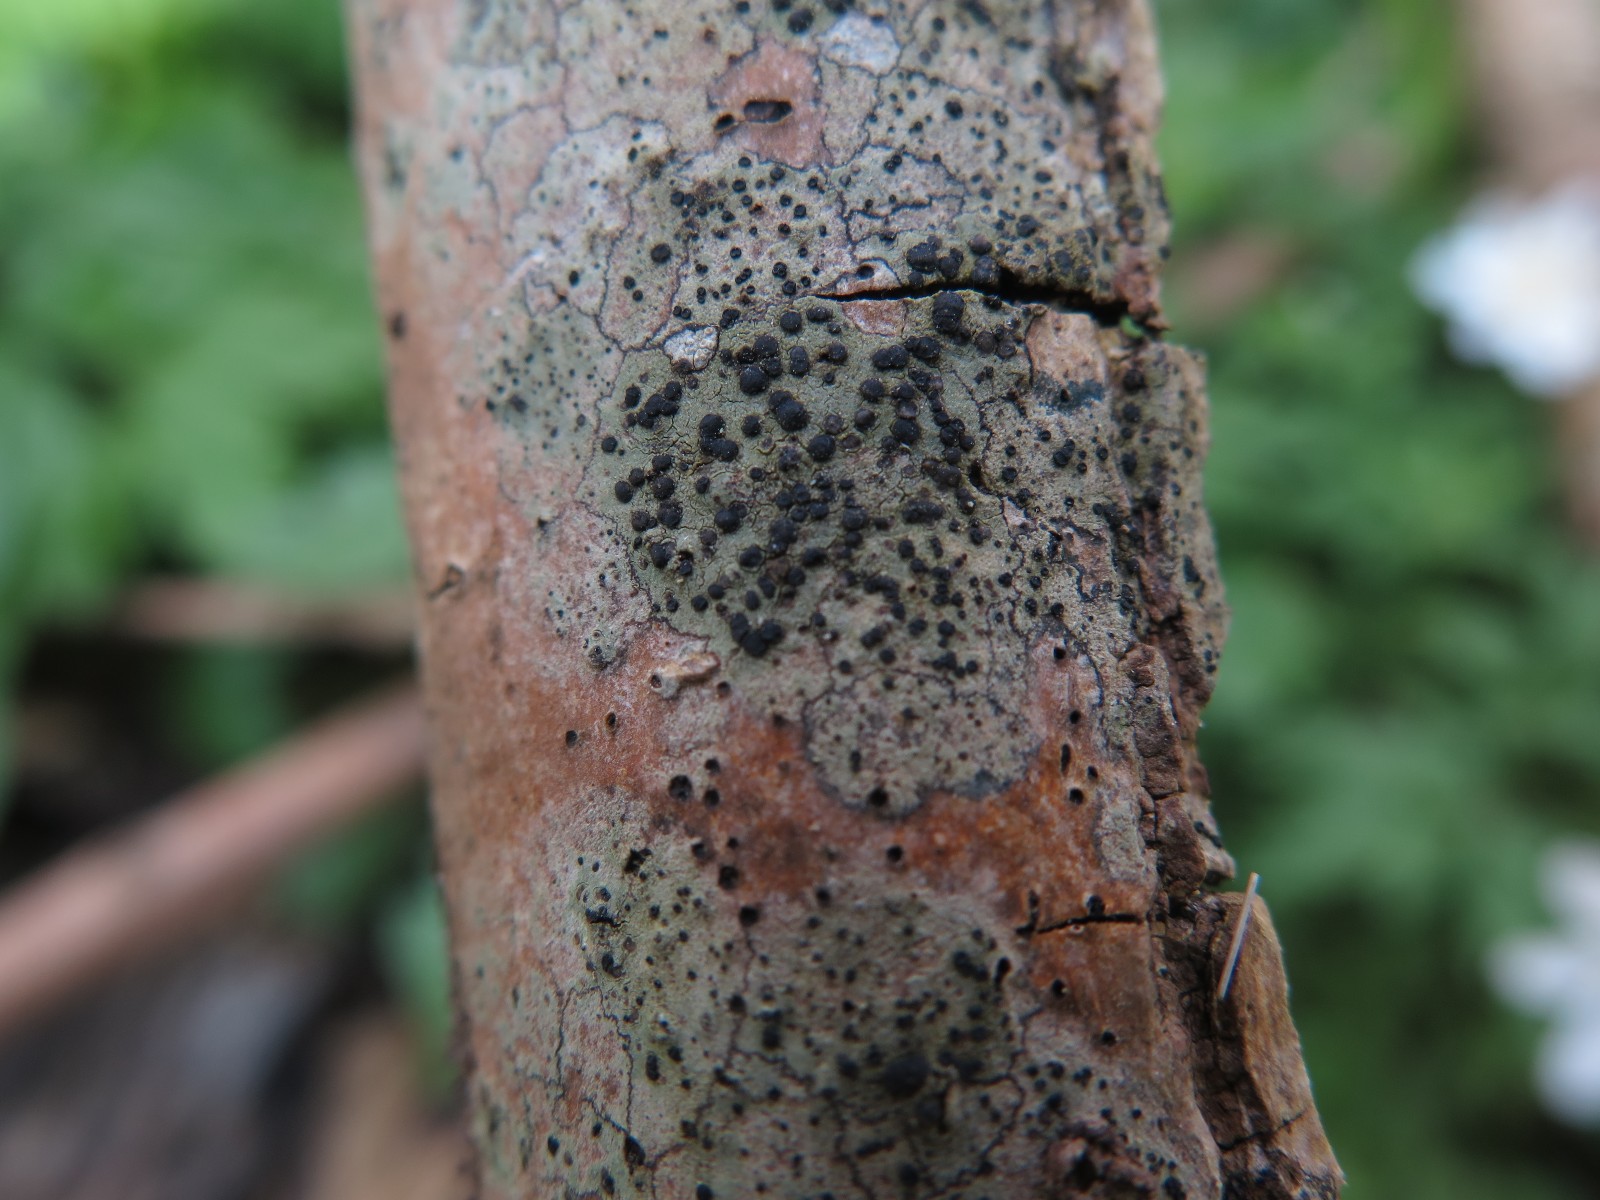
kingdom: Fungi
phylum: Ascomycota
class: Lecanoromycetes
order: Lecanorales
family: Lecanoraceae
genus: Lecidella
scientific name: Lecidella euphorea
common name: vortet skivelav
